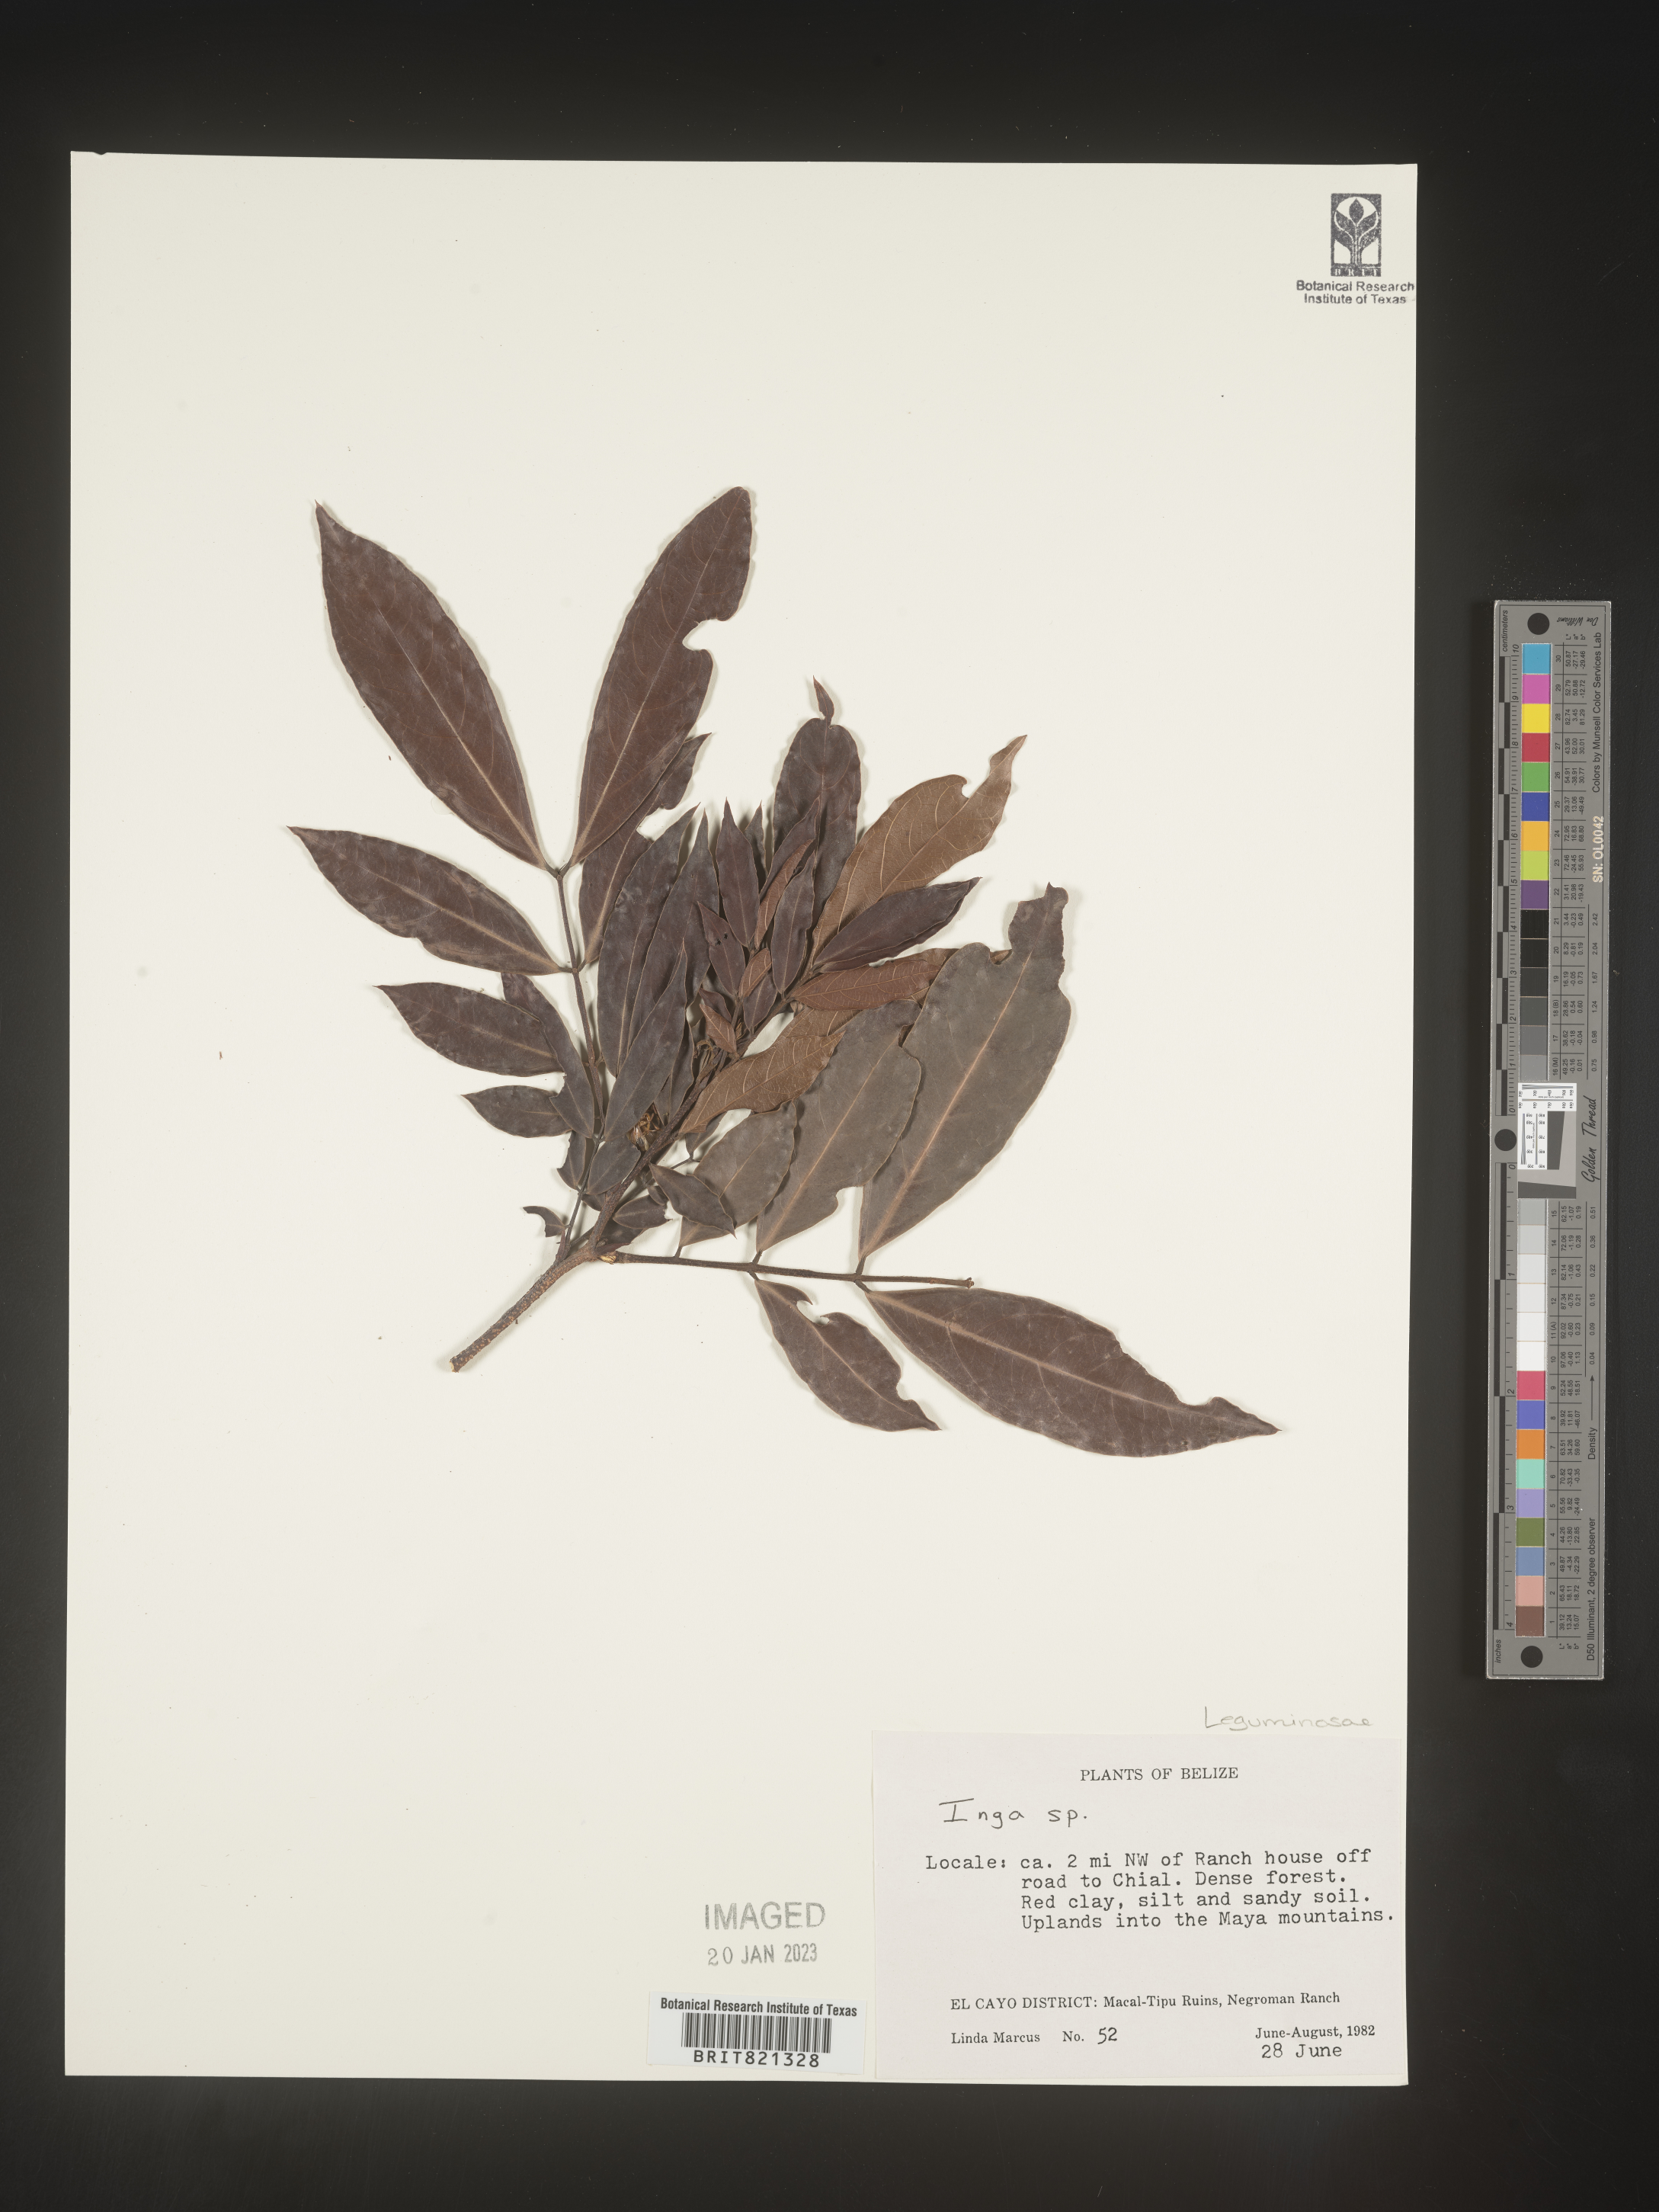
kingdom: Plantae
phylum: Tracheophyta
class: Magnoliopsida
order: Fabales
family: Fabaceae
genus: Inga
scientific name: Inga
